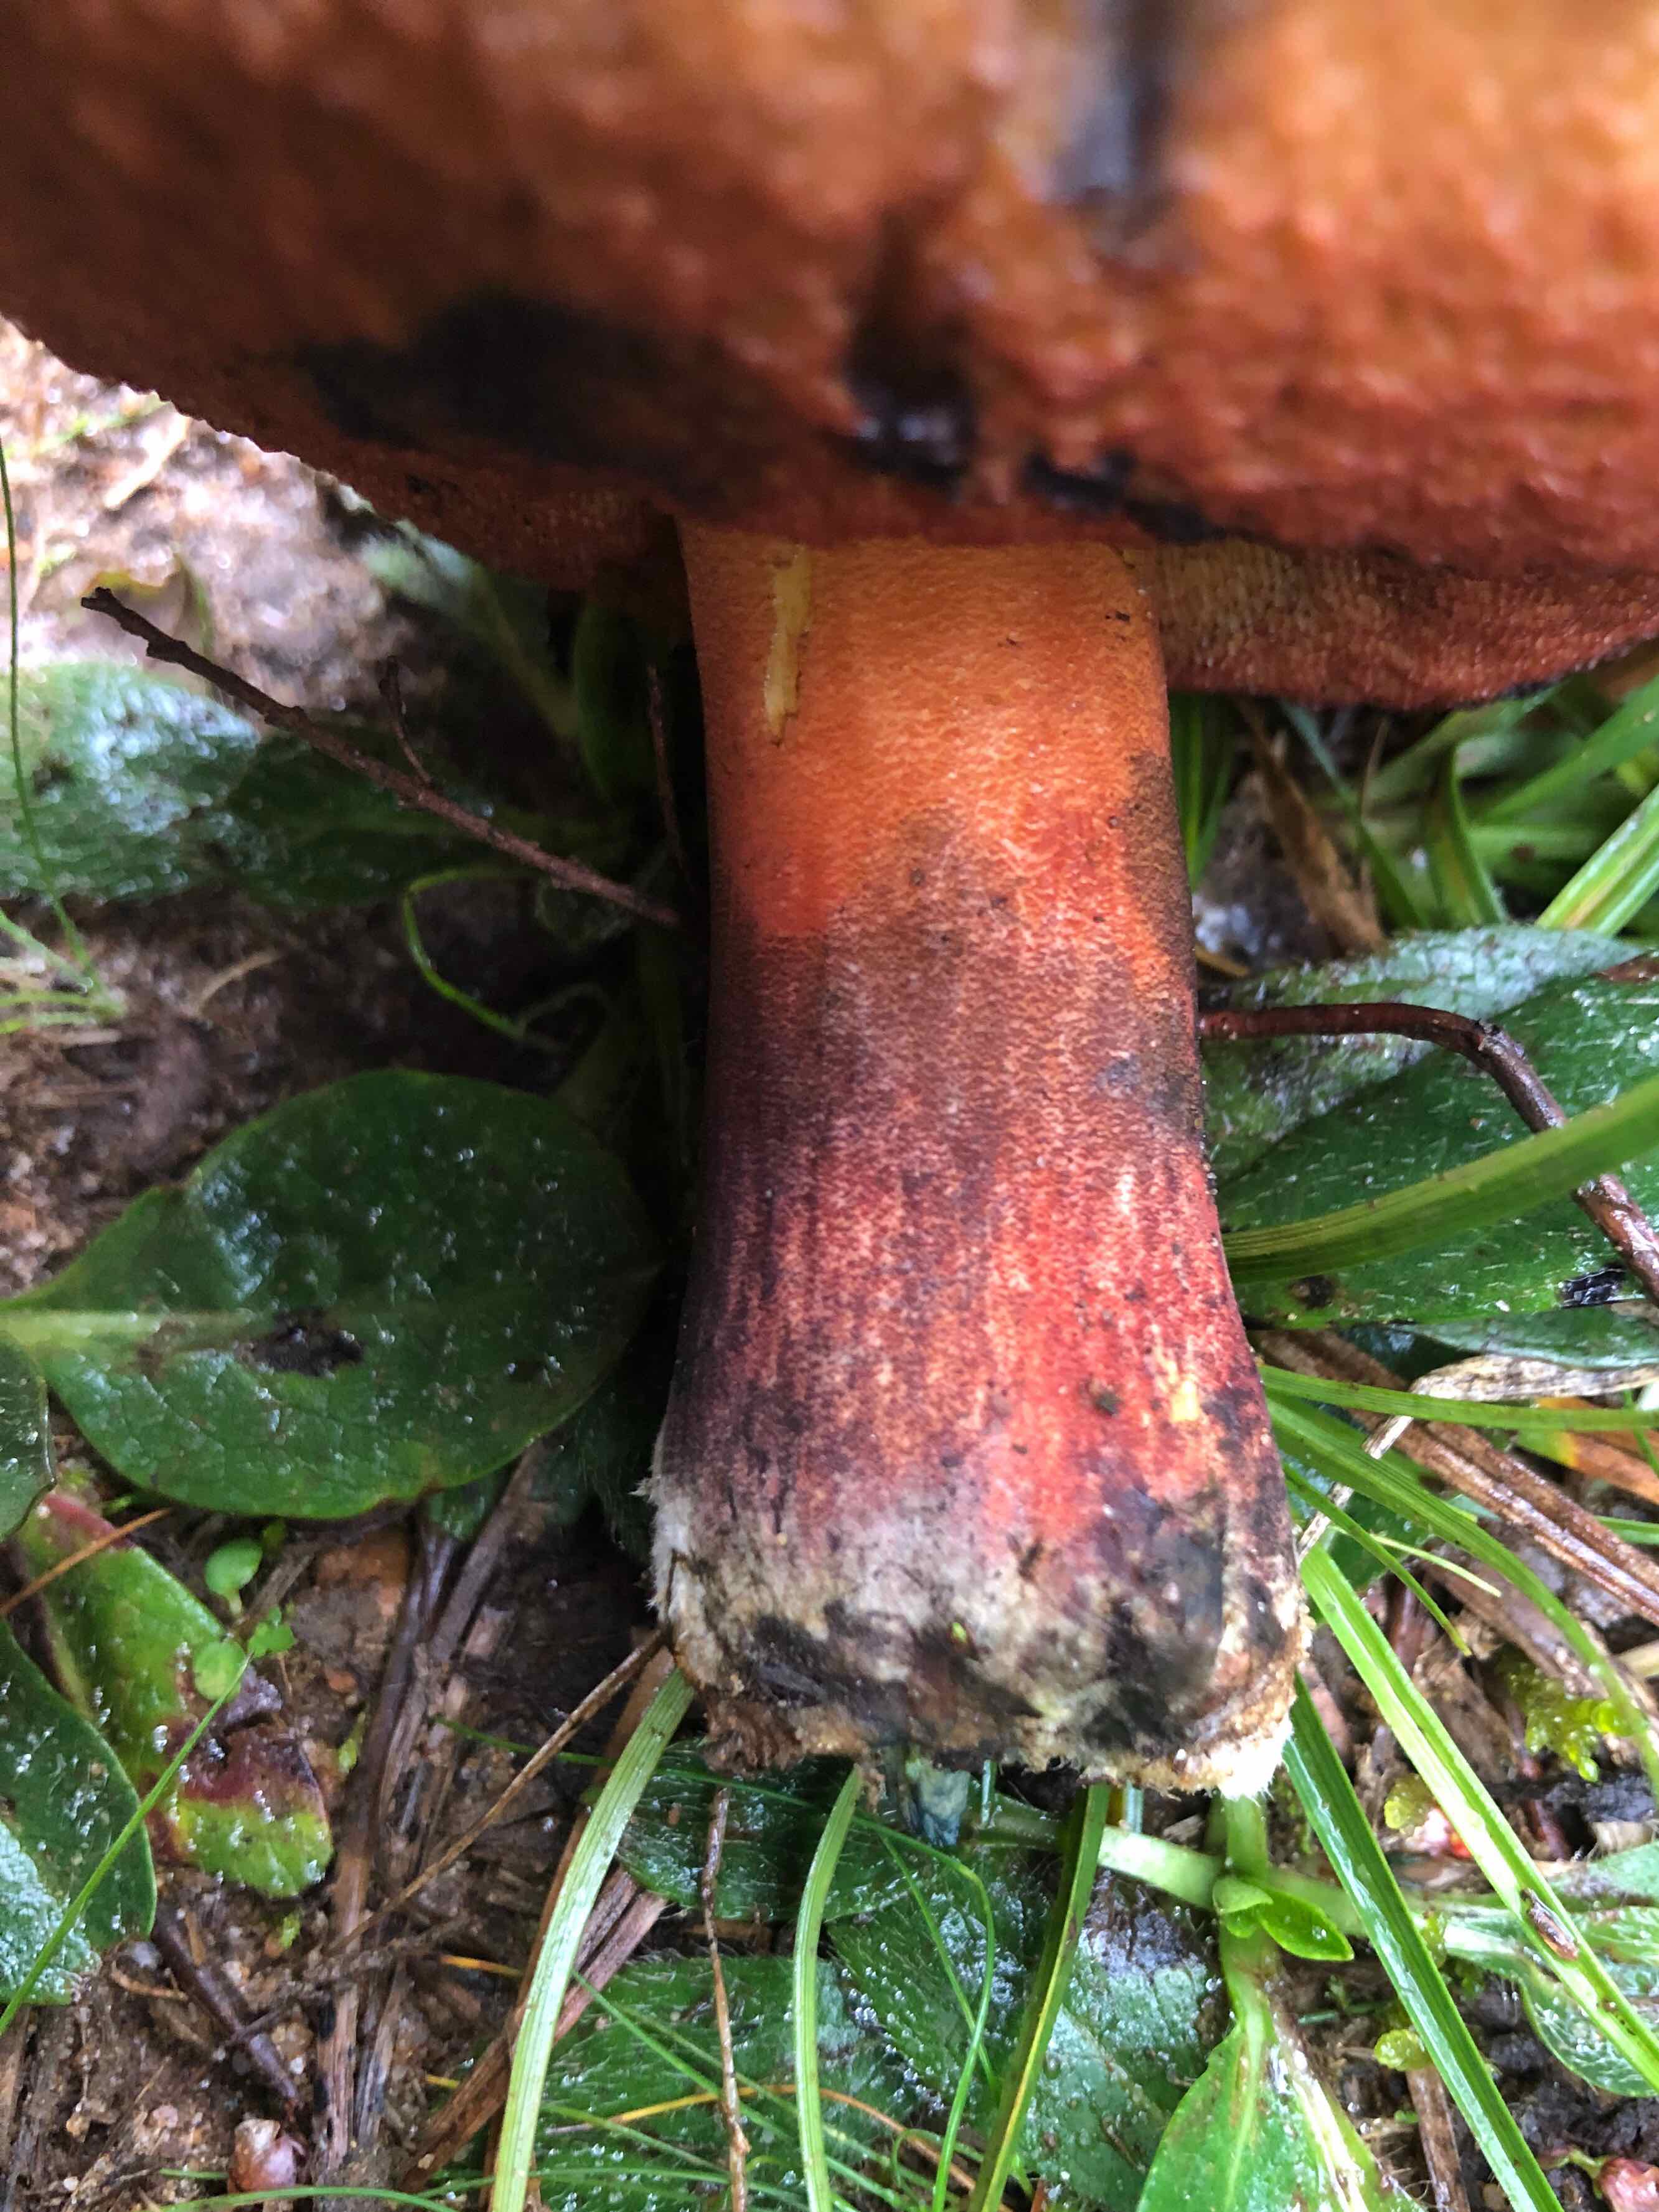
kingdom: Fungi
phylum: Basidiomycota
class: Agaricomycetes
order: Boletales
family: Boletaceae
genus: Neoboletus
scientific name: Neoboletus erythropus
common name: punktstokket indigorørhat
